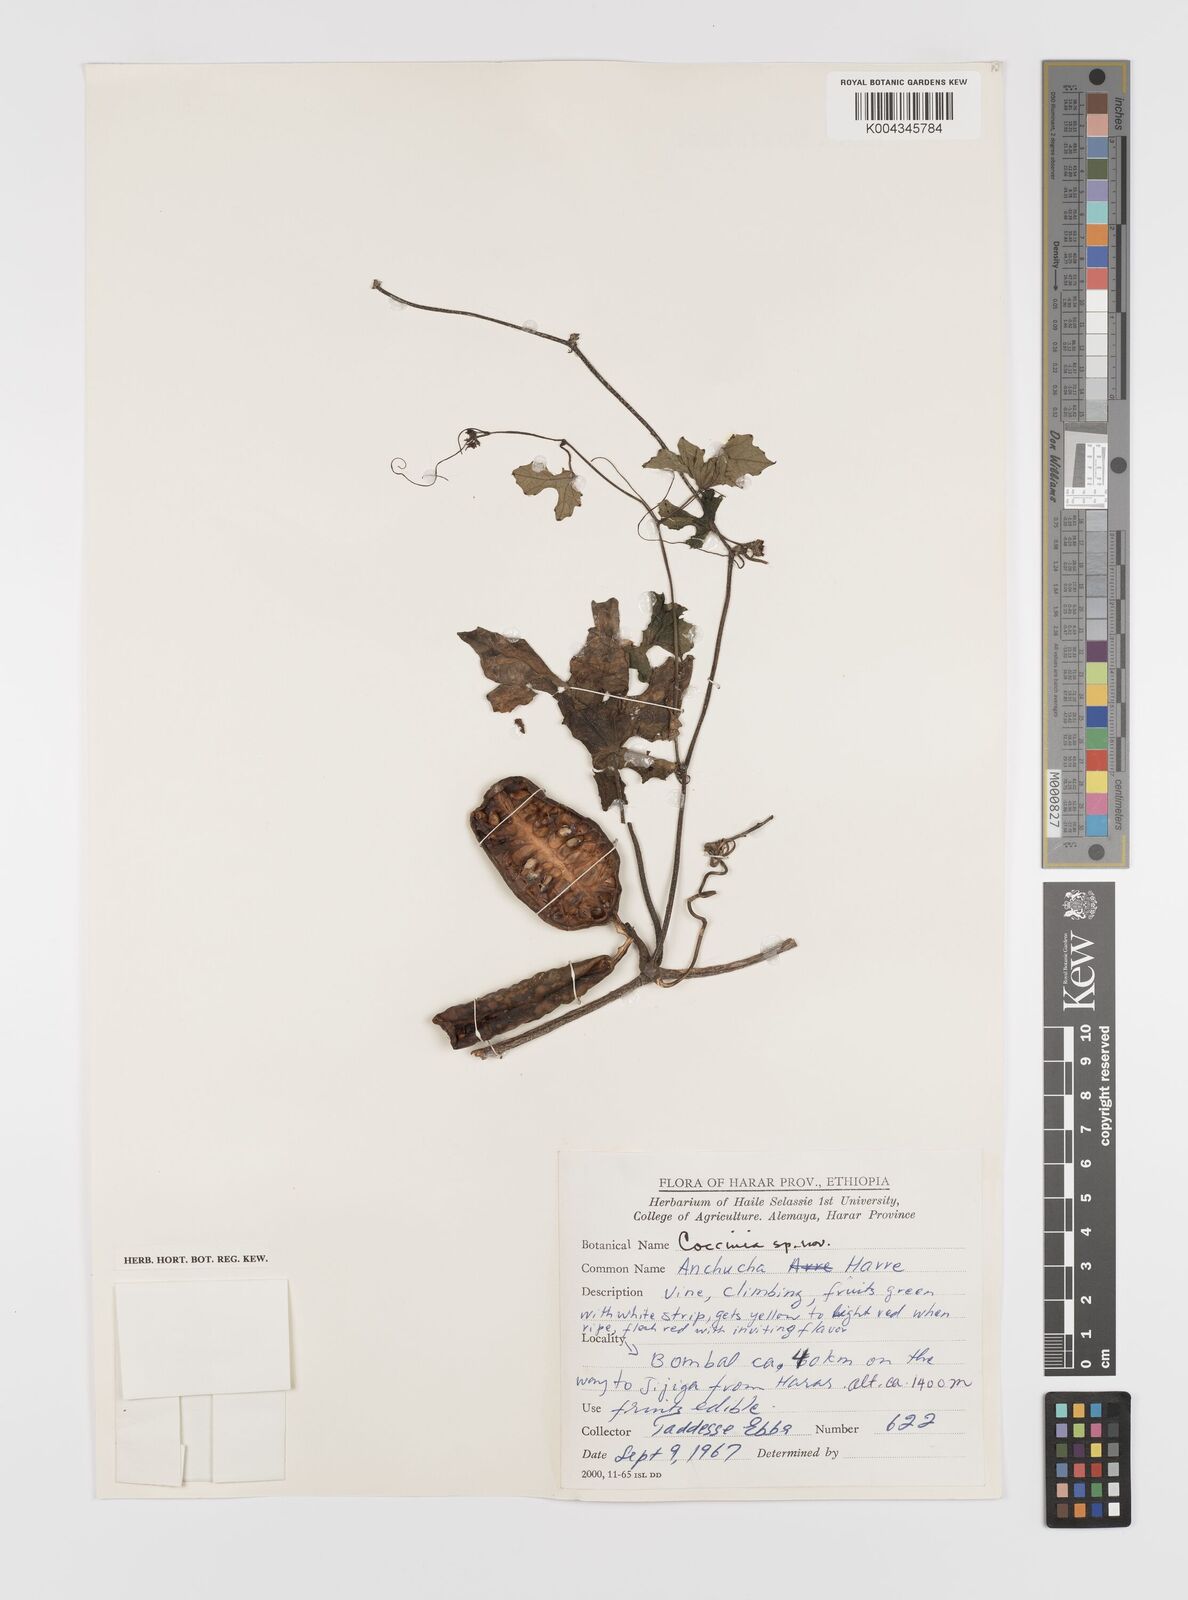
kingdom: Plantae
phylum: Tracheophyta
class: Magnoliopsida
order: Cucurbitales
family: Cucurbitaceae
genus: Coccinia
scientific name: Coccinia
